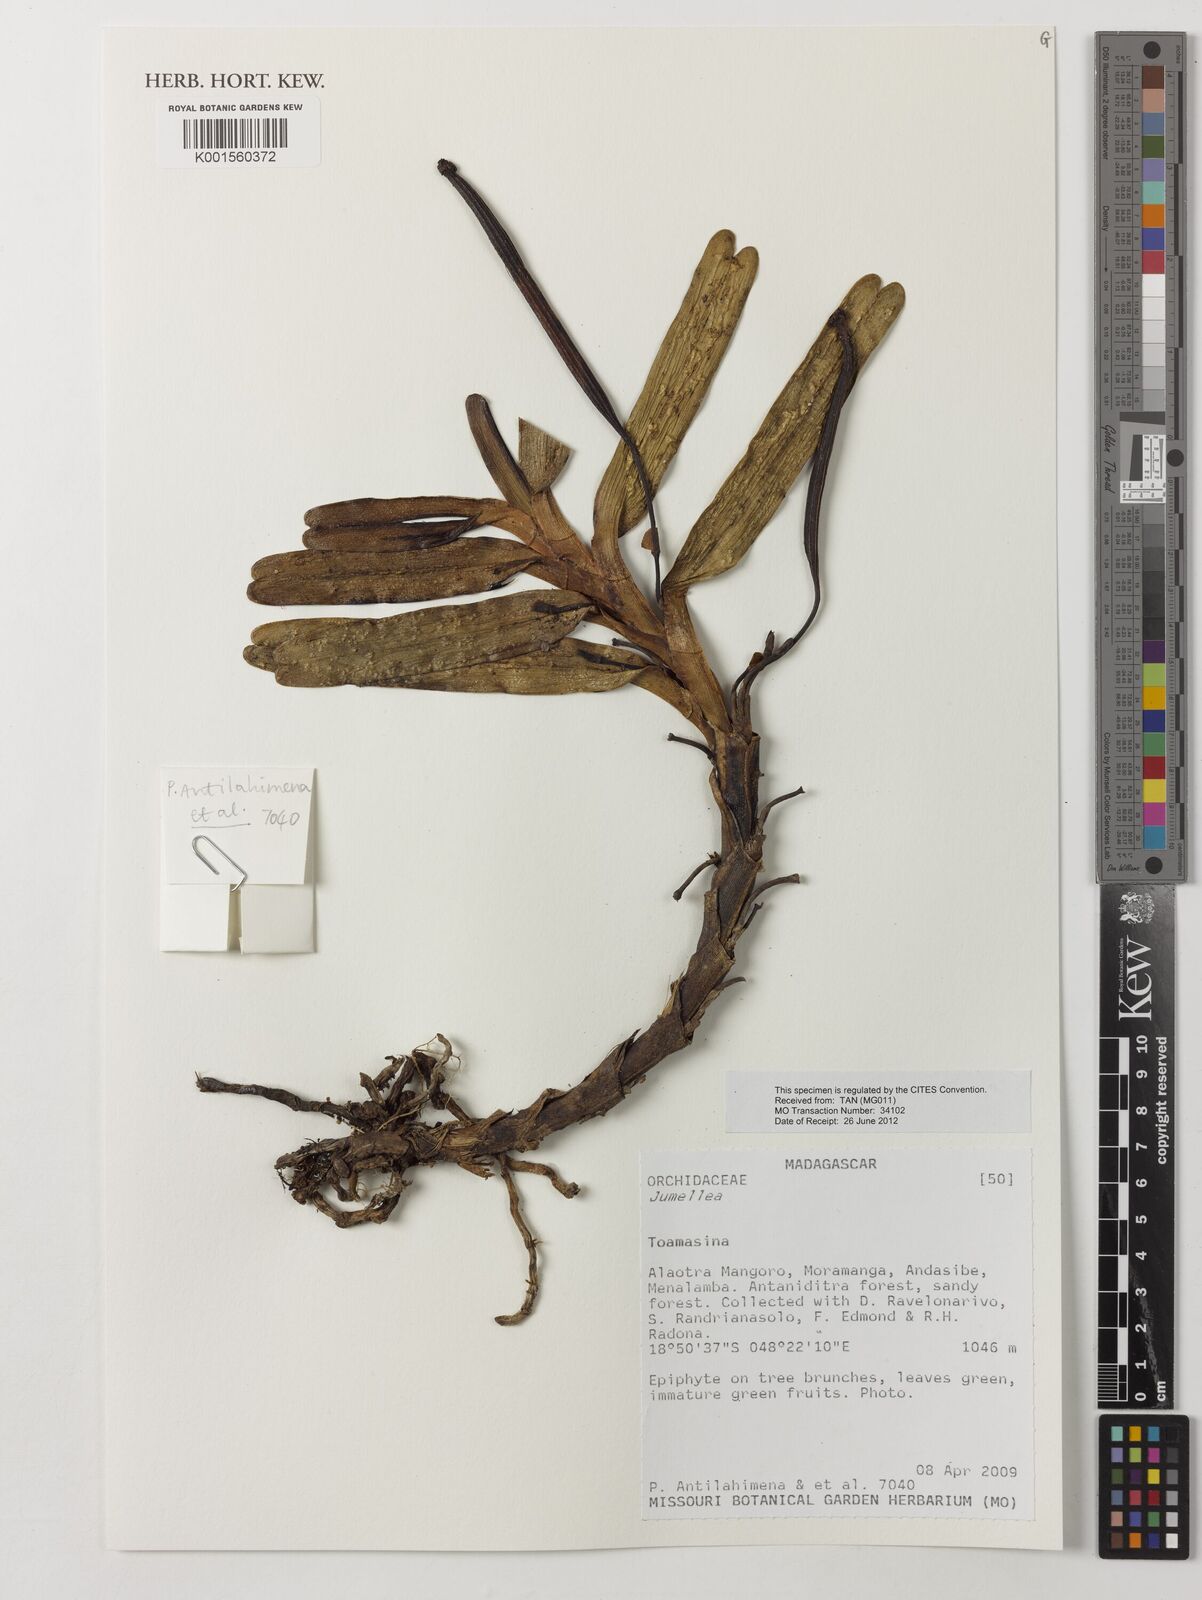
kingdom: Plantae
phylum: Tracheophyta
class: Liliopsida
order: Asparagales
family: Orchidaceae
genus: Jumellea
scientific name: Jumellea
